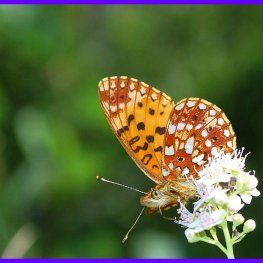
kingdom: Animalia
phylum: Arthropoda
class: Insecta
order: Lepidoptera
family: Nymphalidae
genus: Boloria
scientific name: Boloria selene
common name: Silver-bordered Fritillary
